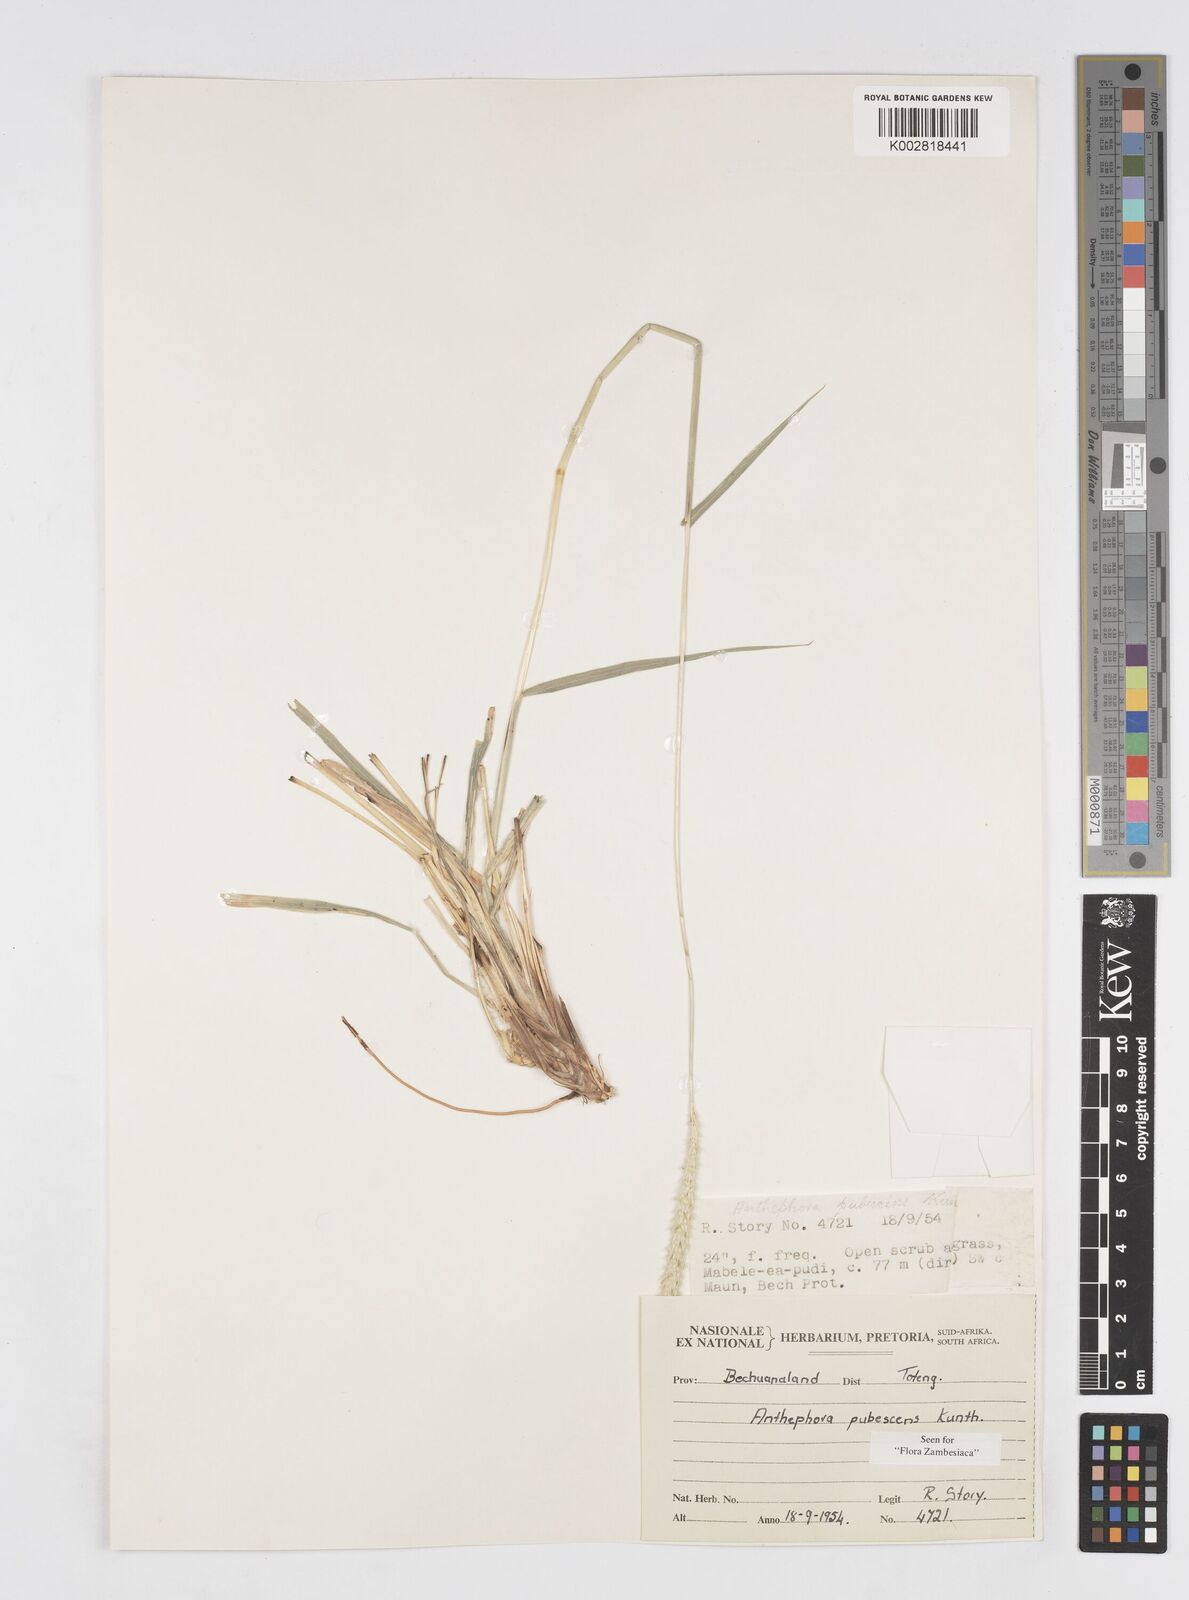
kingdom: Plantae
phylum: Tracheophyta
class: Liliopsida
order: Poales
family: Poaceae
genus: Anthephora
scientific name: Anthephora pubescens
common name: Wool grass
